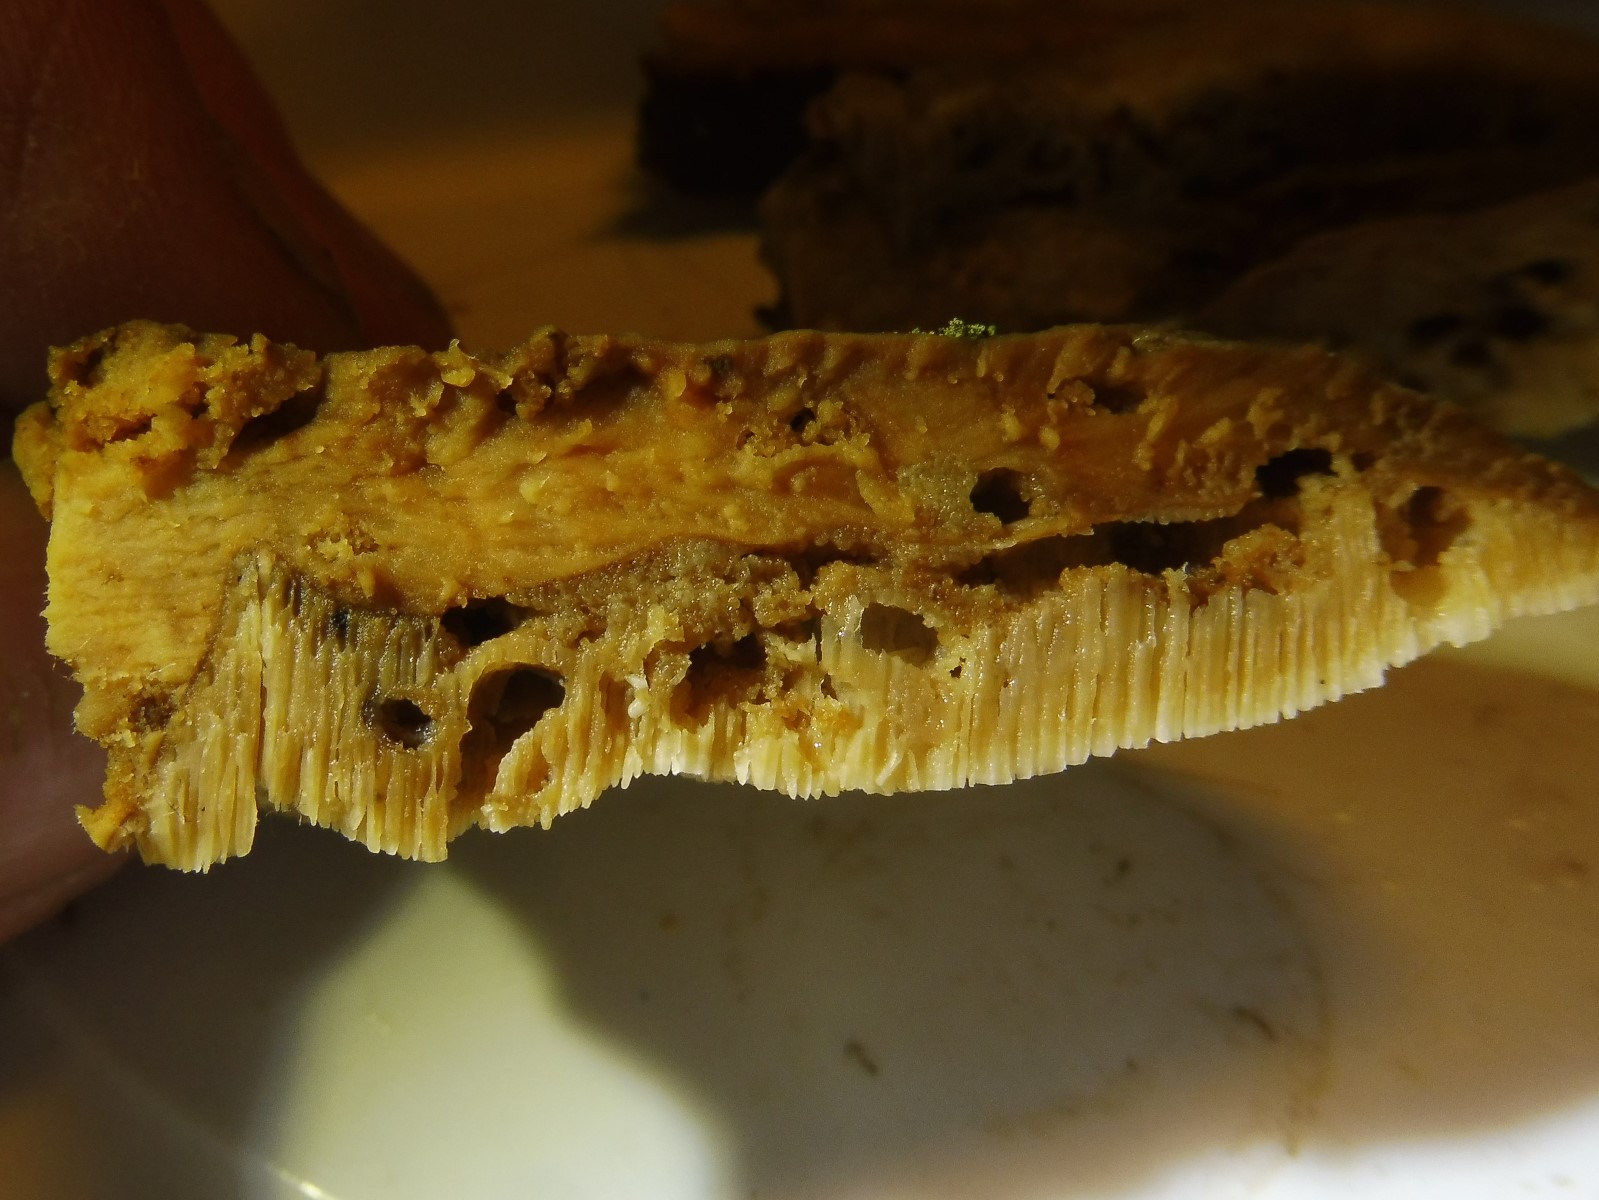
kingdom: Fungi
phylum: Basidiomycota
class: Agaricomycetes
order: Polyporales
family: Phanerochaetaceae
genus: Bjerkandera
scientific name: Bjerkandera fumosa
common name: grågul sodporesvamp
